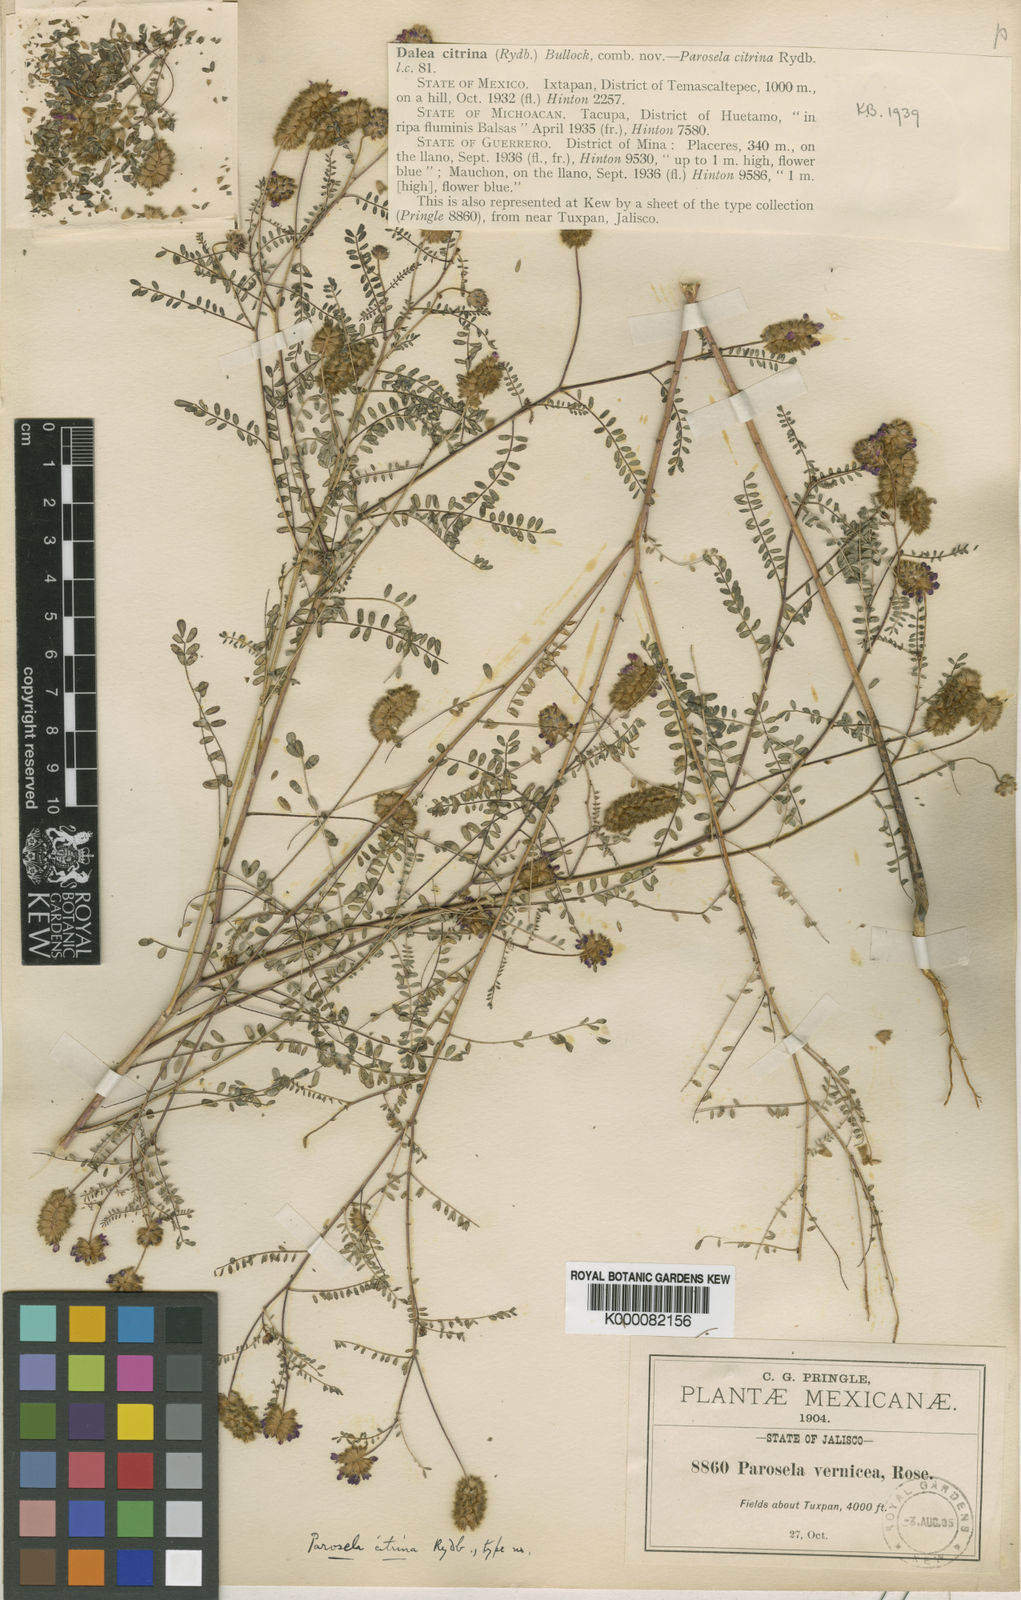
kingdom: Plantae
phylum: Tracheophyta
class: Magnoliopsida
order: Fabales
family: Fabaceae
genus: Dalea
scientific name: Dalea
